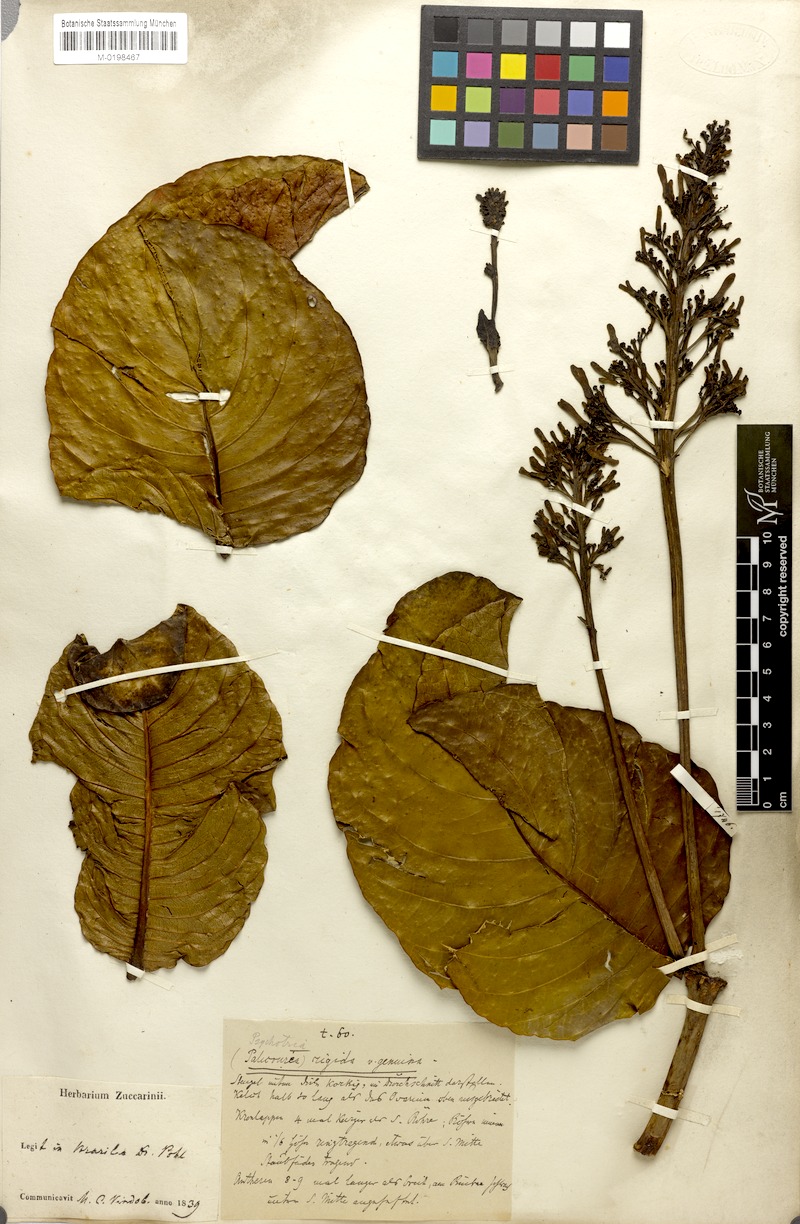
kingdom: Plantae
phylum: Tracheophyta
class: Magnoliopsida
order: Gentianales
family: Rubiaceae
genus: Palicourea
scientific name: Palicourea rigida
